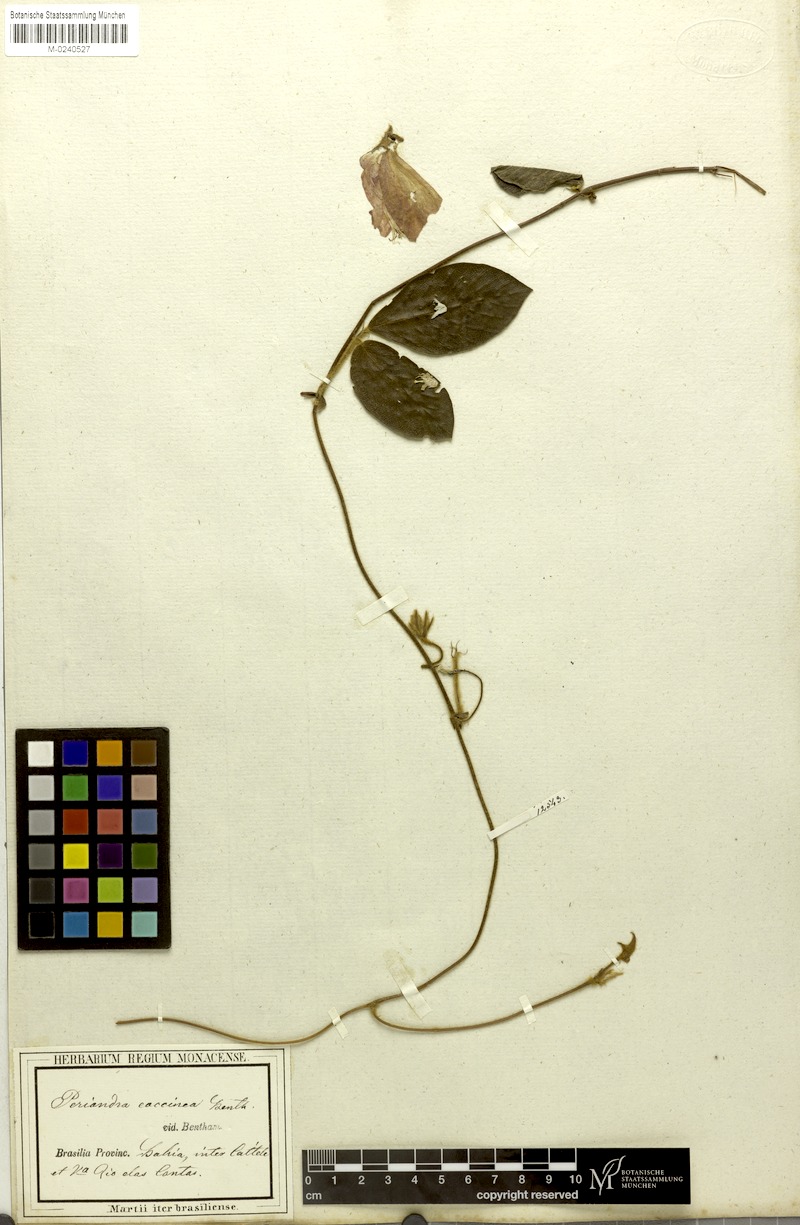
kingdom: Plantae
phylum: Tracheophyta
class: Magnoliopsida
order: Fabales
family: Fabaceae
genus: Periandra
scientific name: Periandra coccinea
